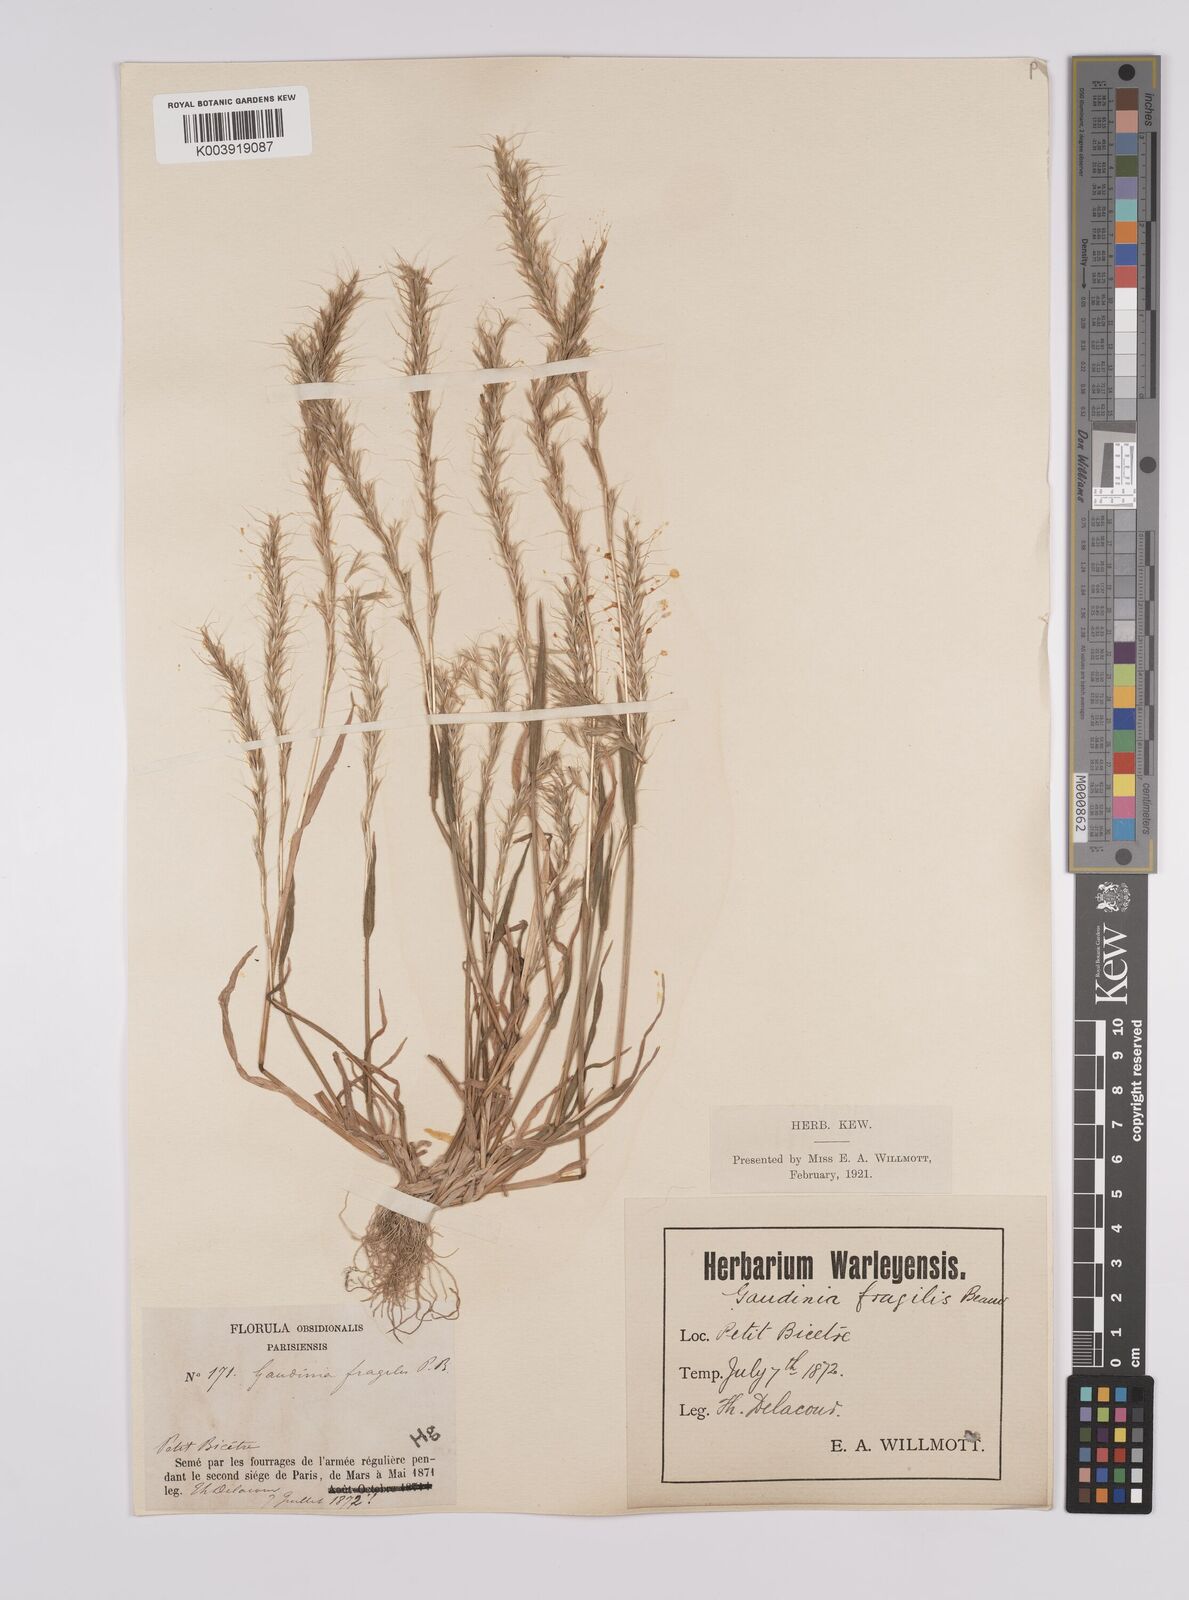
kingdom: Plantae
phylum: Tracheophyta
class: Liliopsida
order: Poales
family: Poaceae
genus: Gaudinia
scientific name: Gaudinia fragilis
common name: French oat-grass
